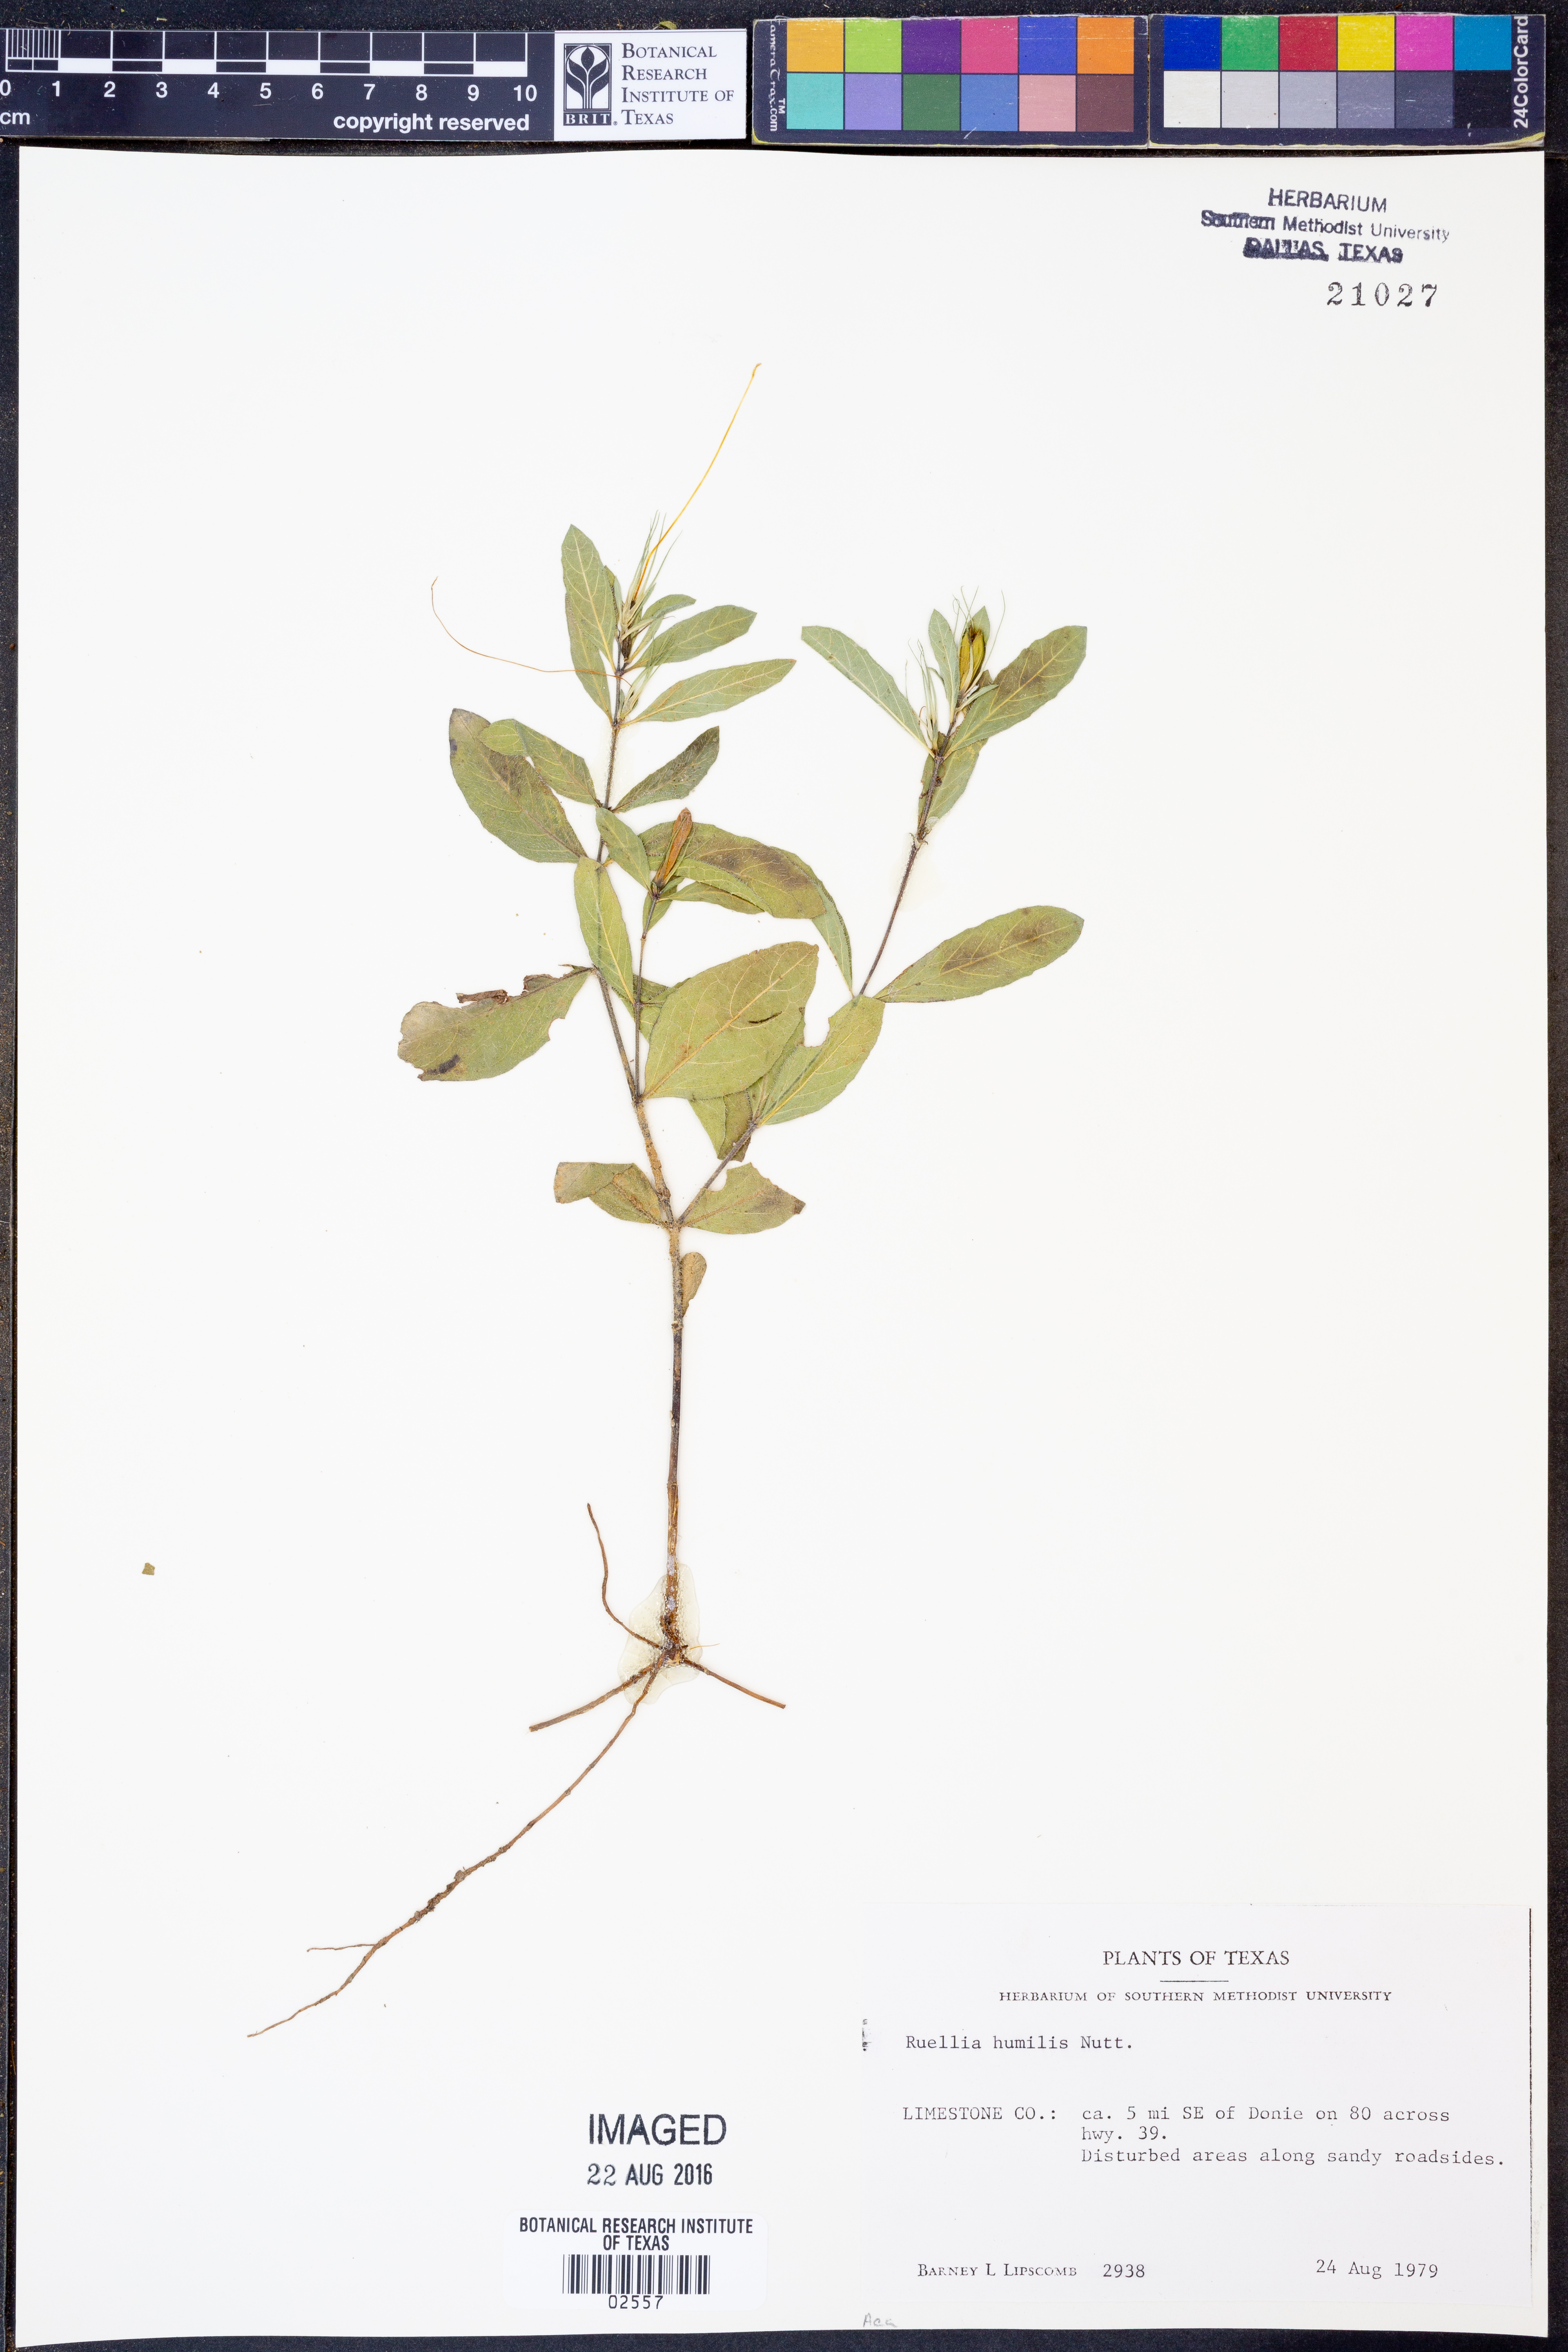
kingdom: Plantae
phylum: Tracheophyta
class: Magnoliopsida
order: Lamiales
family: Acanthaceae
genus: Ruellia
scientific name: Ruellia humilis
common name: Fringe-leaf ruellia
